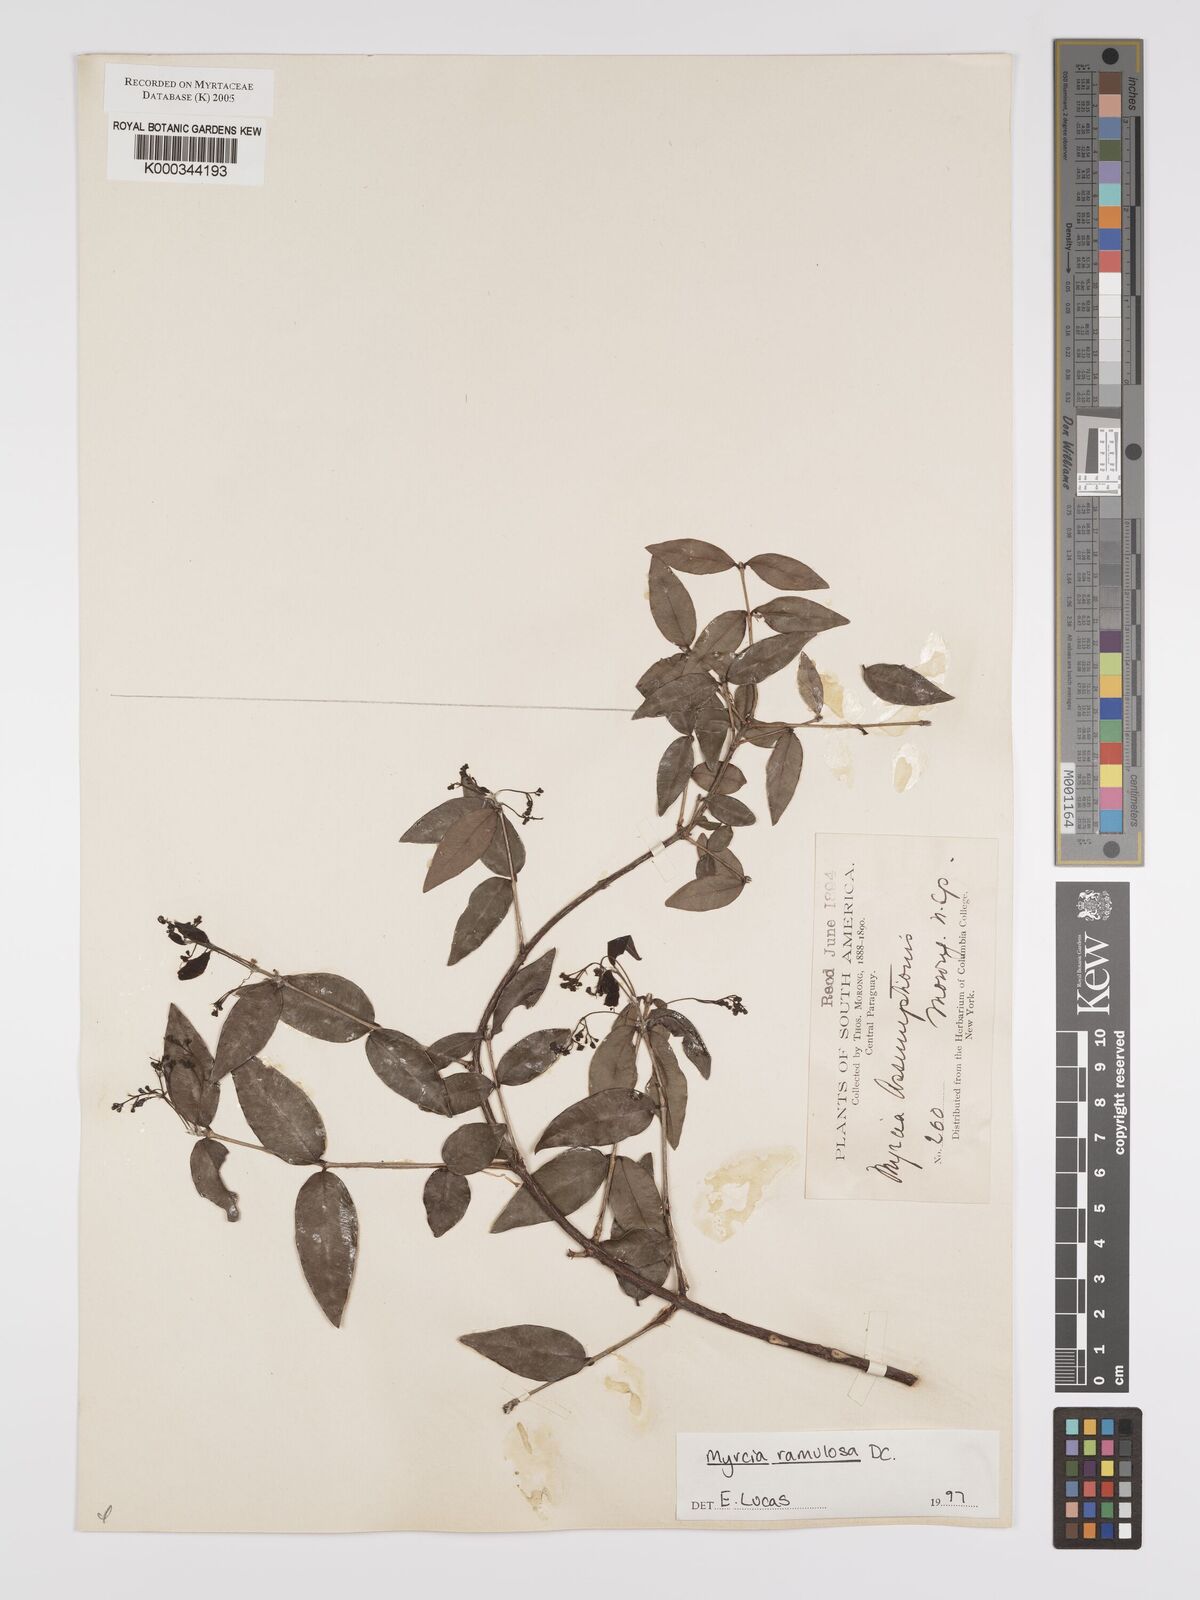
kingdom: Plantae
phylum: Tracheophyta
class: Magnoliopsida
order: Myrtales
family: Myrtaceae
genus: Myrcia
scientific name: Myrcia selloi
